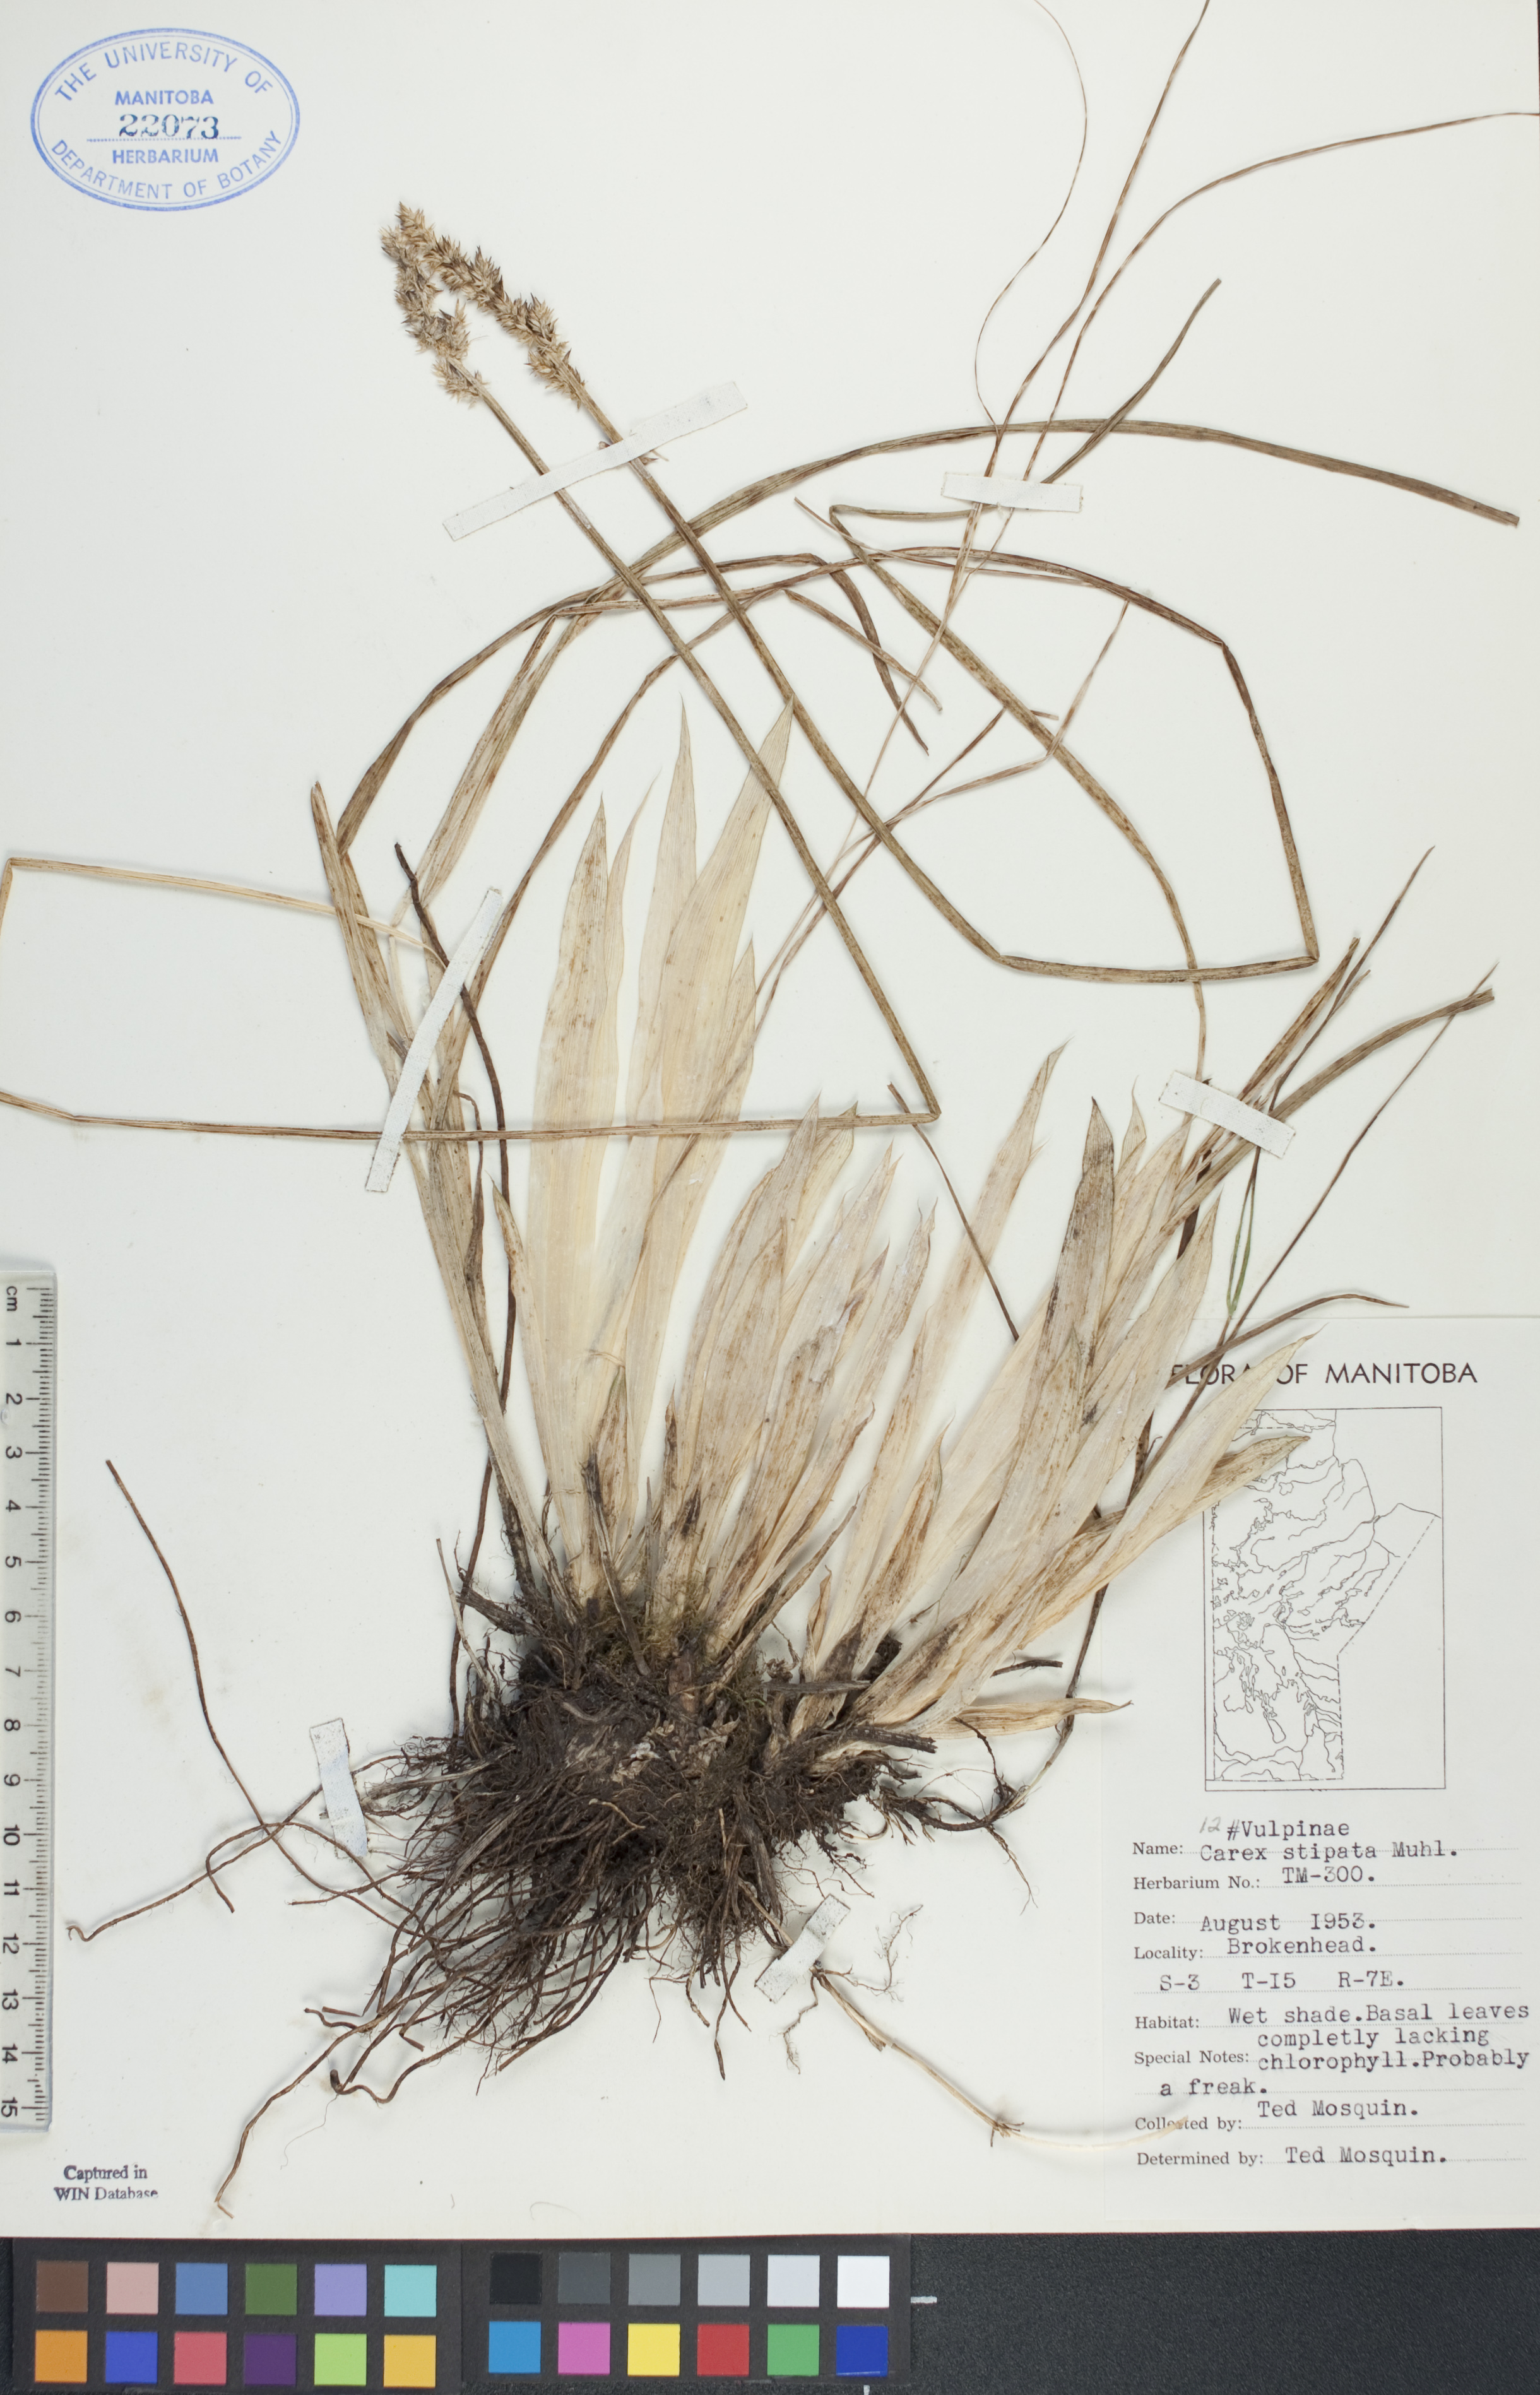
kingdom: Plantae
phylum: Tracheophyta
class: Liliopsida
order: Poales
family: Cyperaceae
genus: Carex
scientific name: Carex stipata
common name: Awl-fruited sedge
